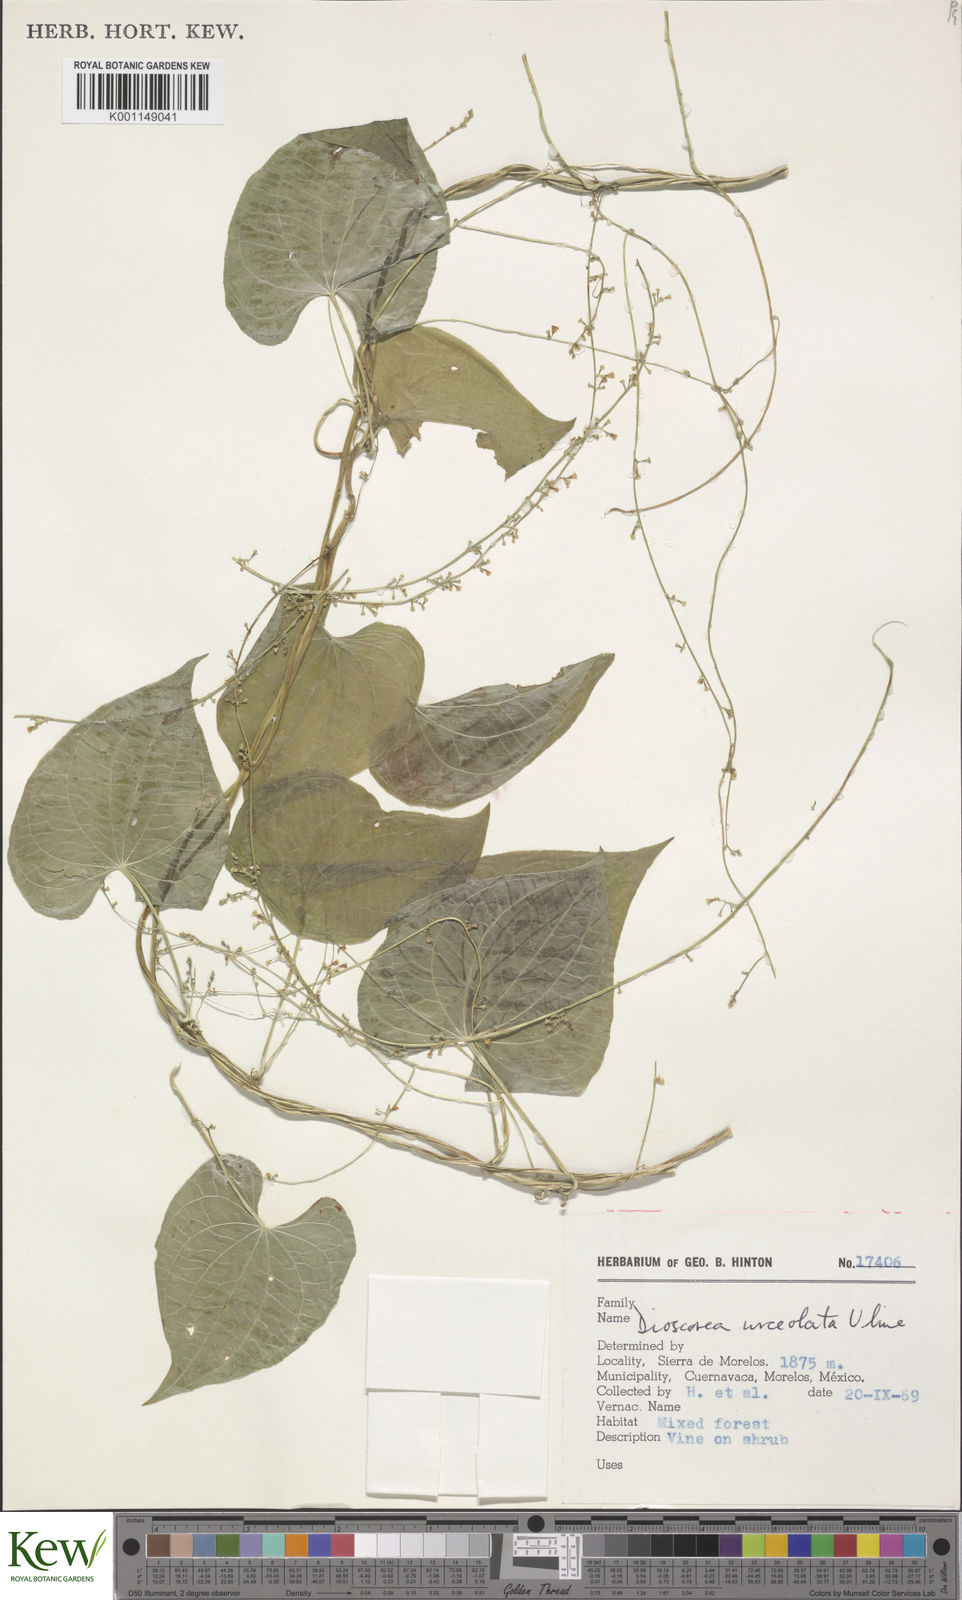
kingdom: Plantae
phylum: Tracheophyta
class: Liliopsida
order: Dioscoreales
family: Dioscoreaceae
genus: Dioscorea
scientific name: Dioscorea urceolata
